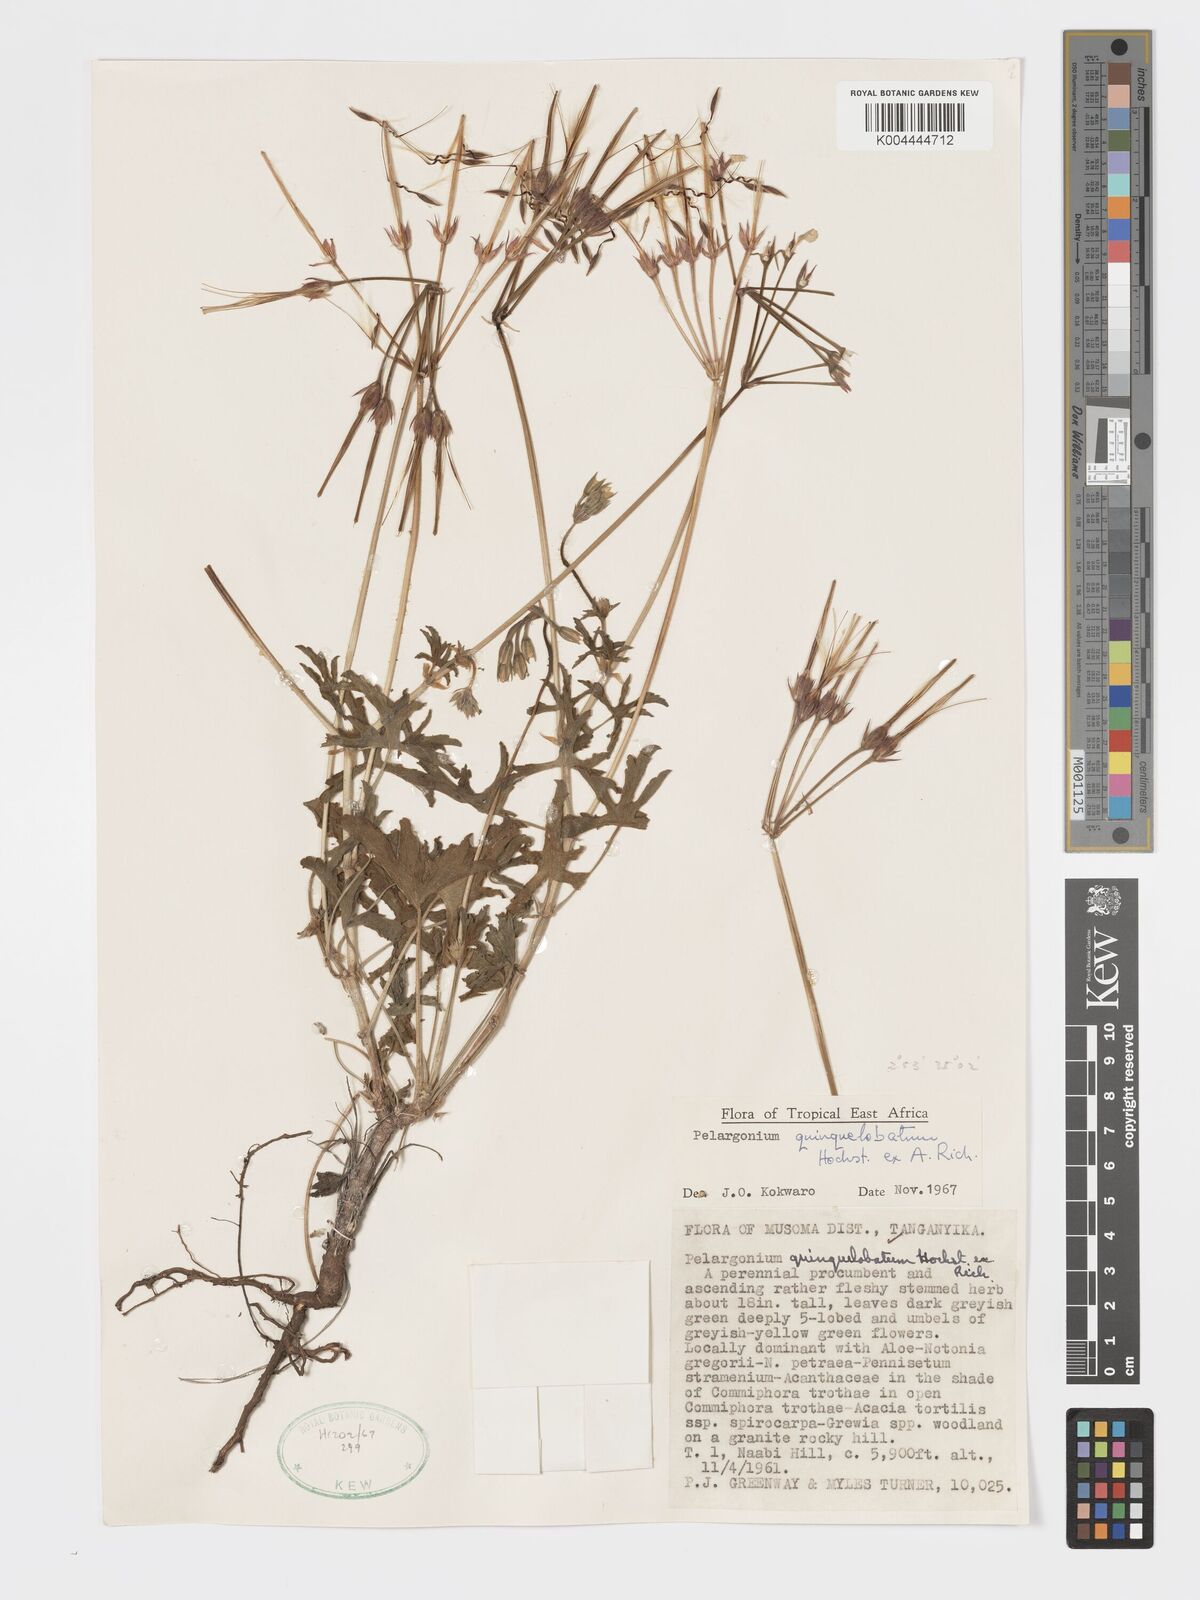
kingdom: Plantae
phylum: Tracheophyta
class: Magnoliopsida
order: Geraniales
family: Geraniaceae
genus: Pelargonium
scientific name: Pelargonium quinquelobatum
